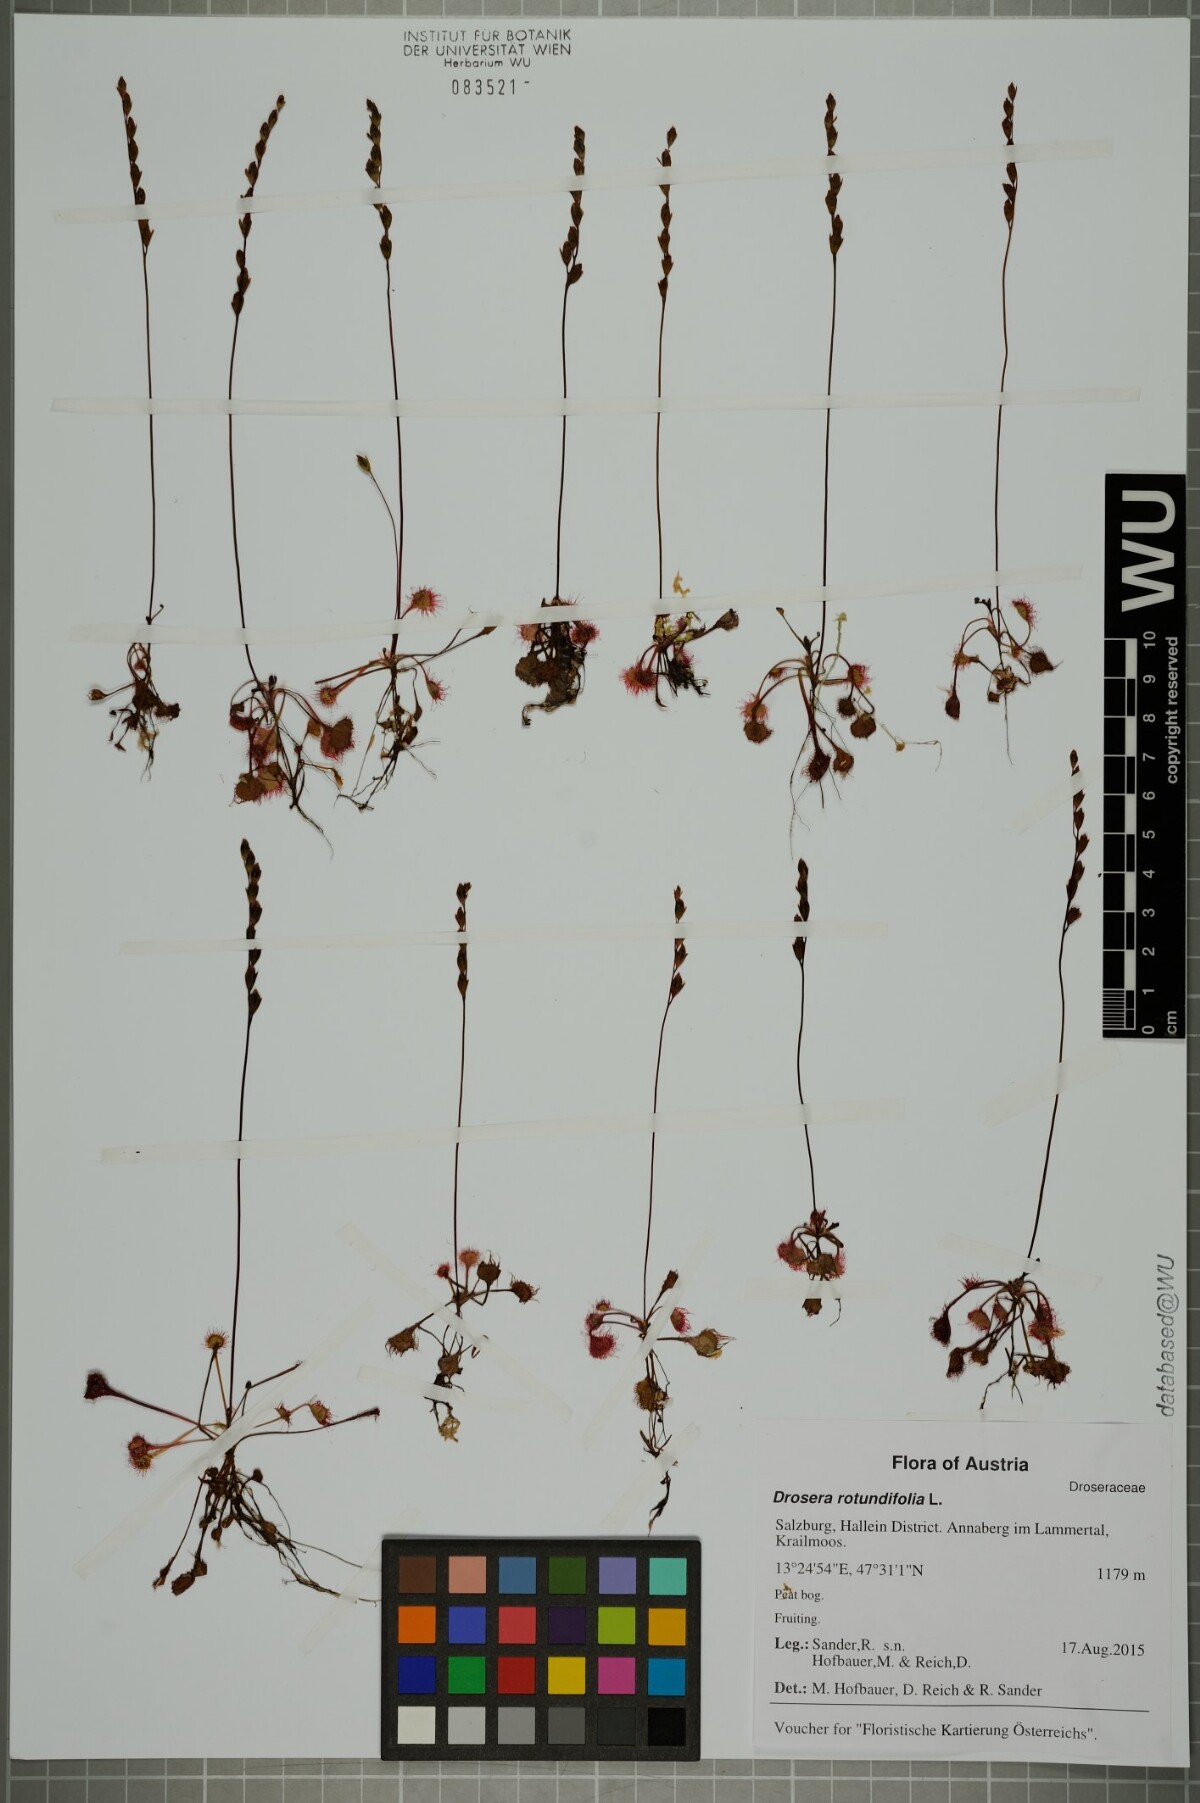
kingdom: Plantae
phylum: Tracheophyta
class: Magnoliopsida
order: Caryophyllales
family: Droseraceae
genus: Drosera
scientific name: Drosera rotundifolia
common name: Round-leaved sundew
